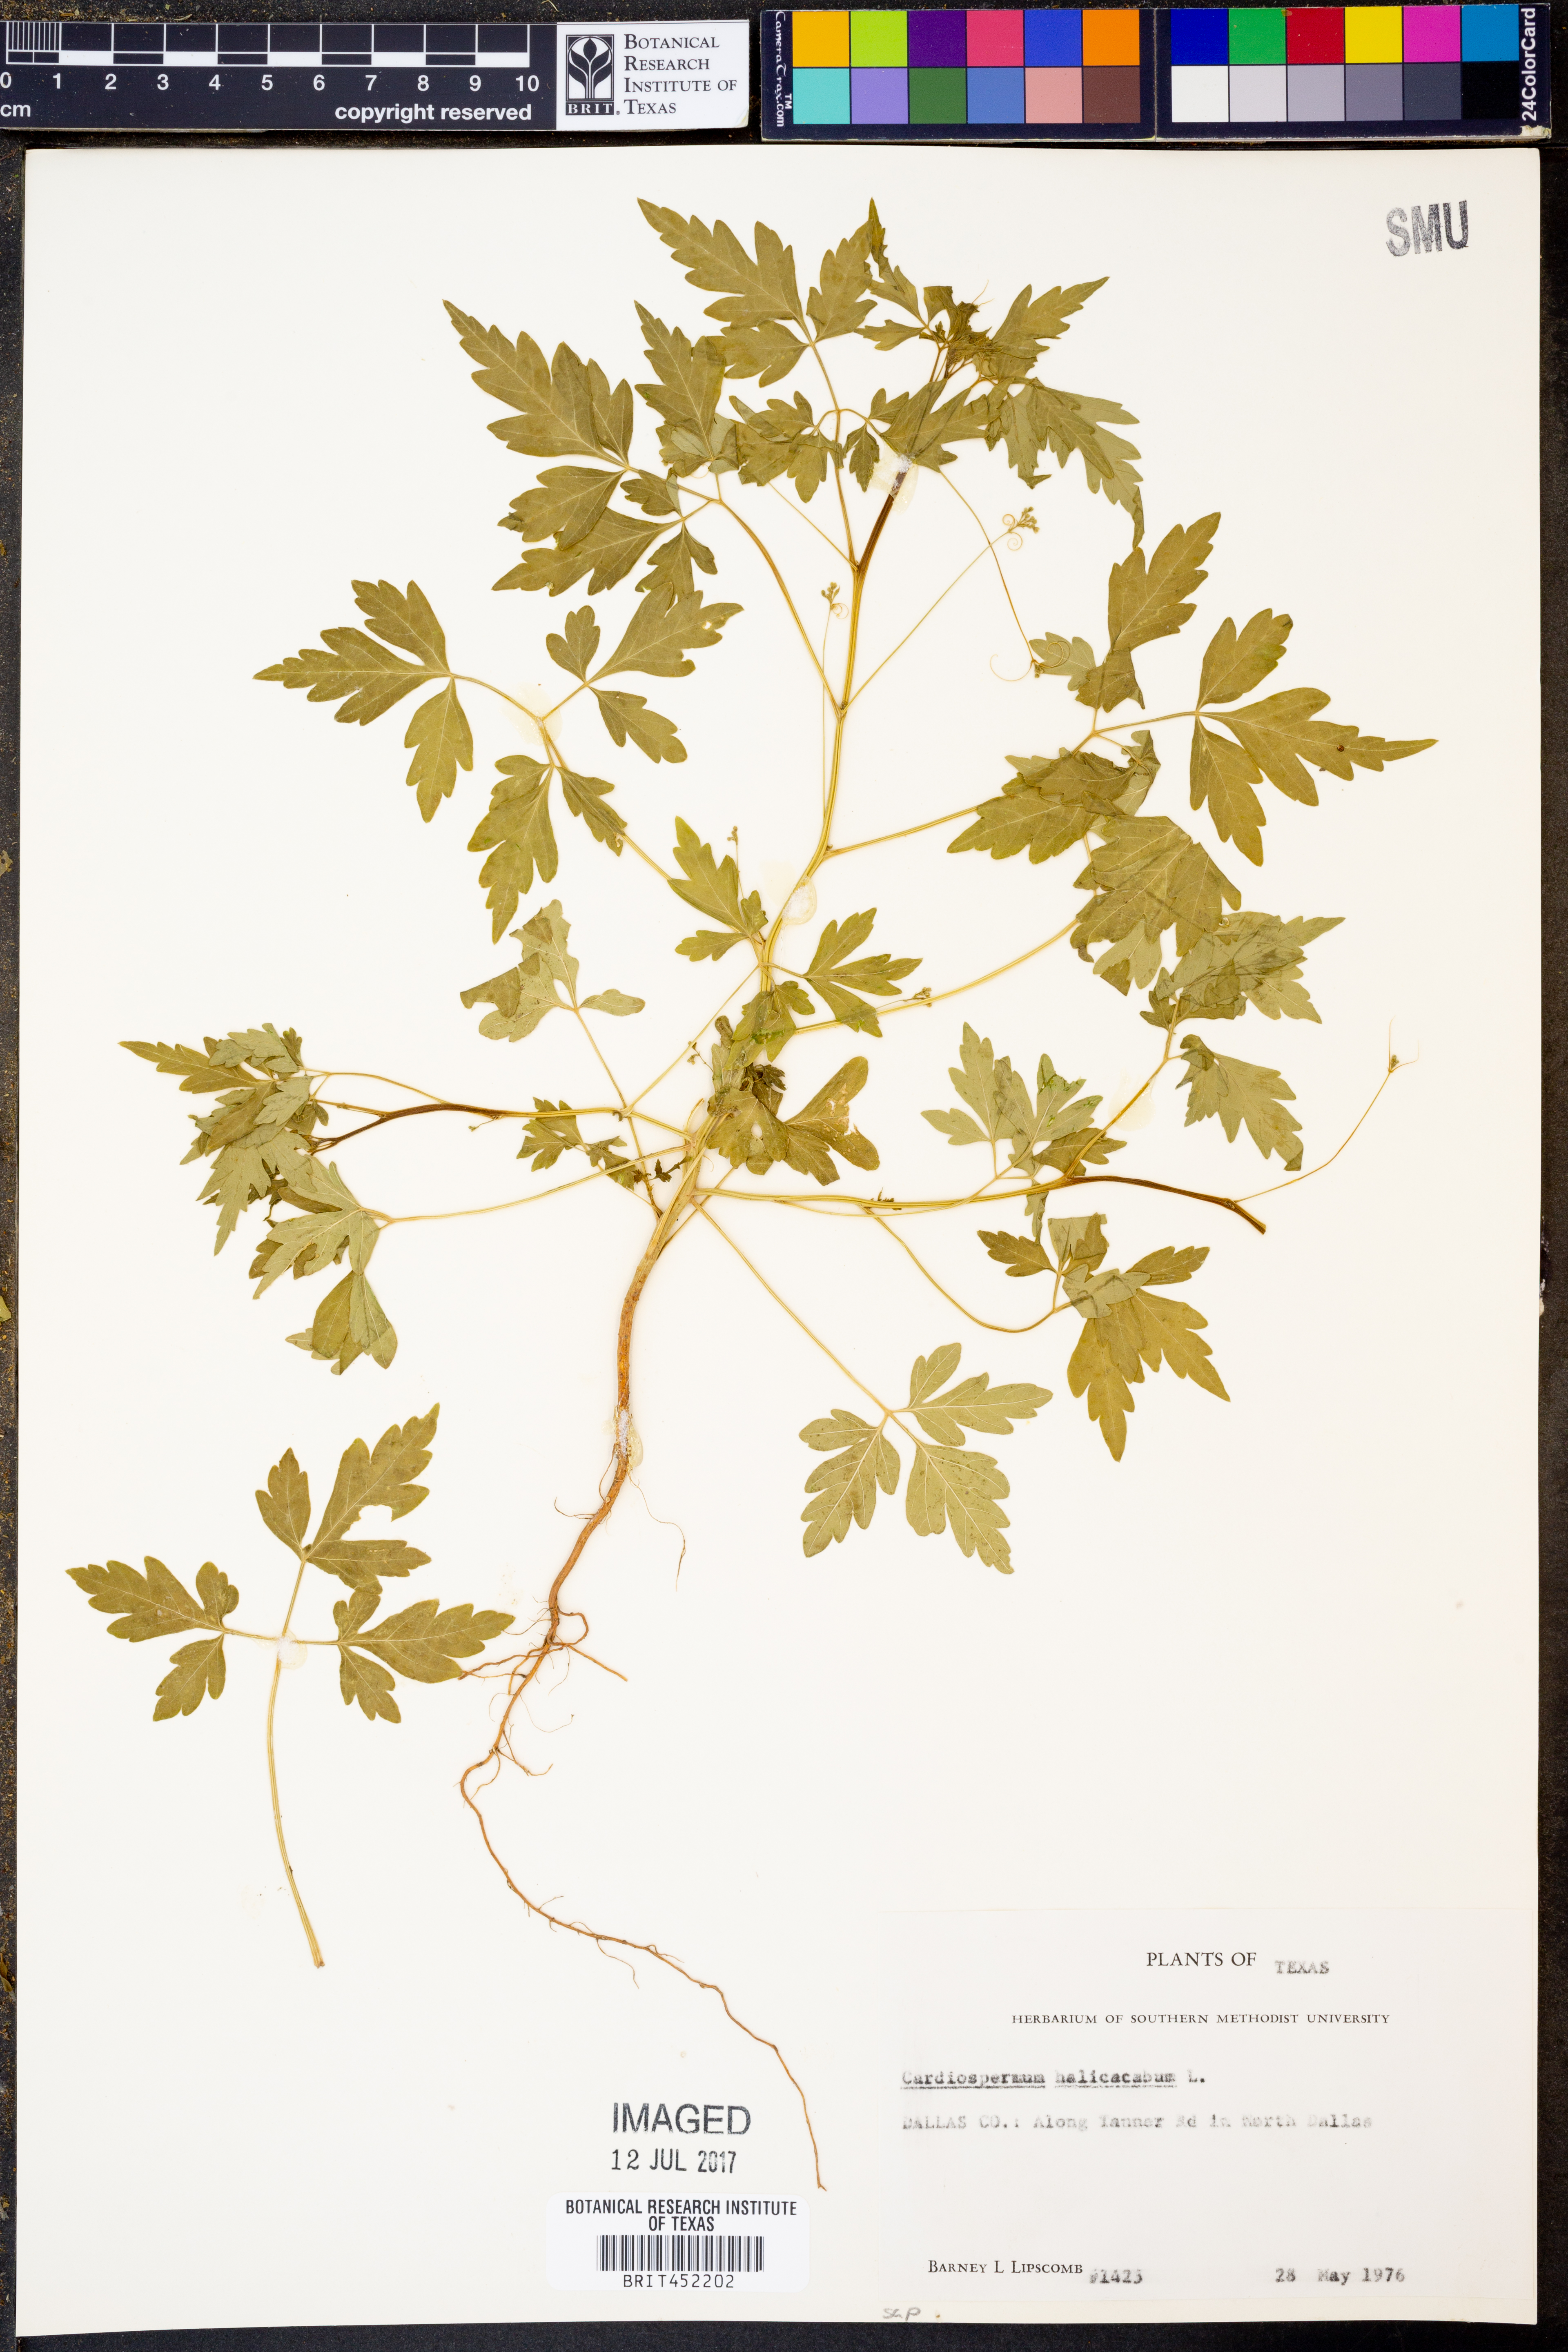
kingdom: Plantae
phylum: Tracheophyta
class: Magnoliopsida
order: Sapindales
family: Sapindaceae
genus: Cardiospermum
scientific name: Cardiospermum halicacabum
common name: Balloon vine
